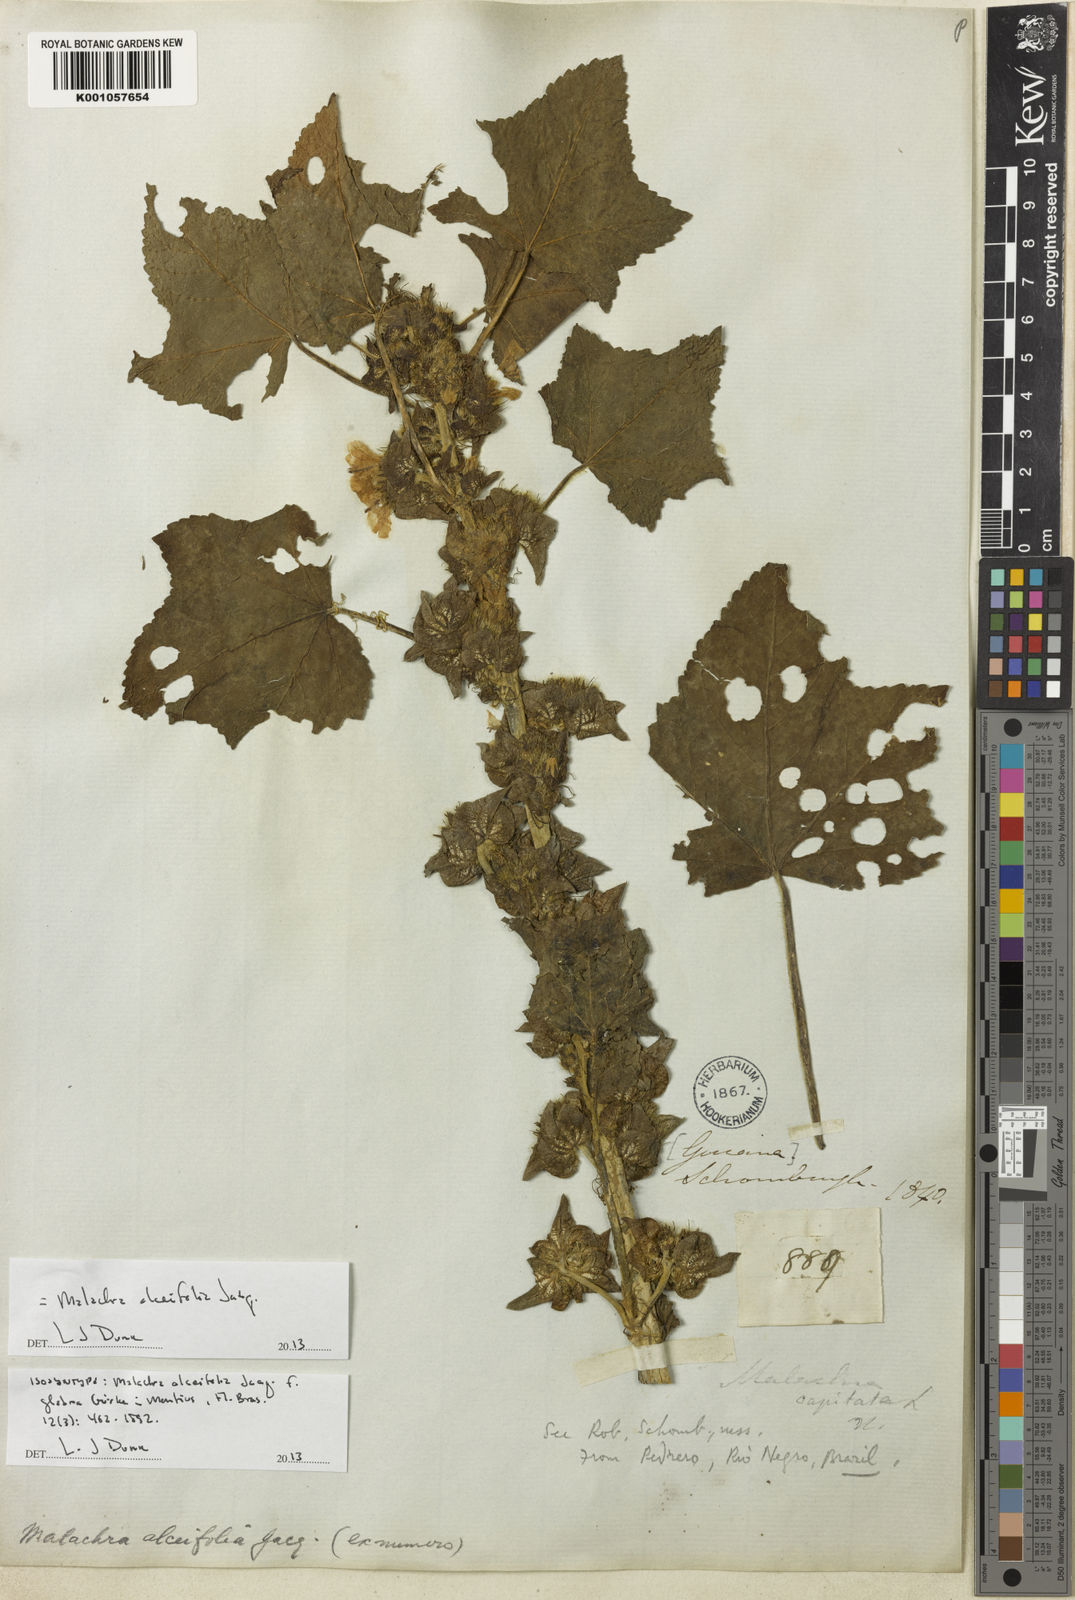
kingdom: Plantae
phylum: Tracheophyta
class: Magnoliopsida
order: Malvales
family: Malvaceae
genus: Malachra
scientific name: Malachra alceifolia
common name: Yellow leafbract
